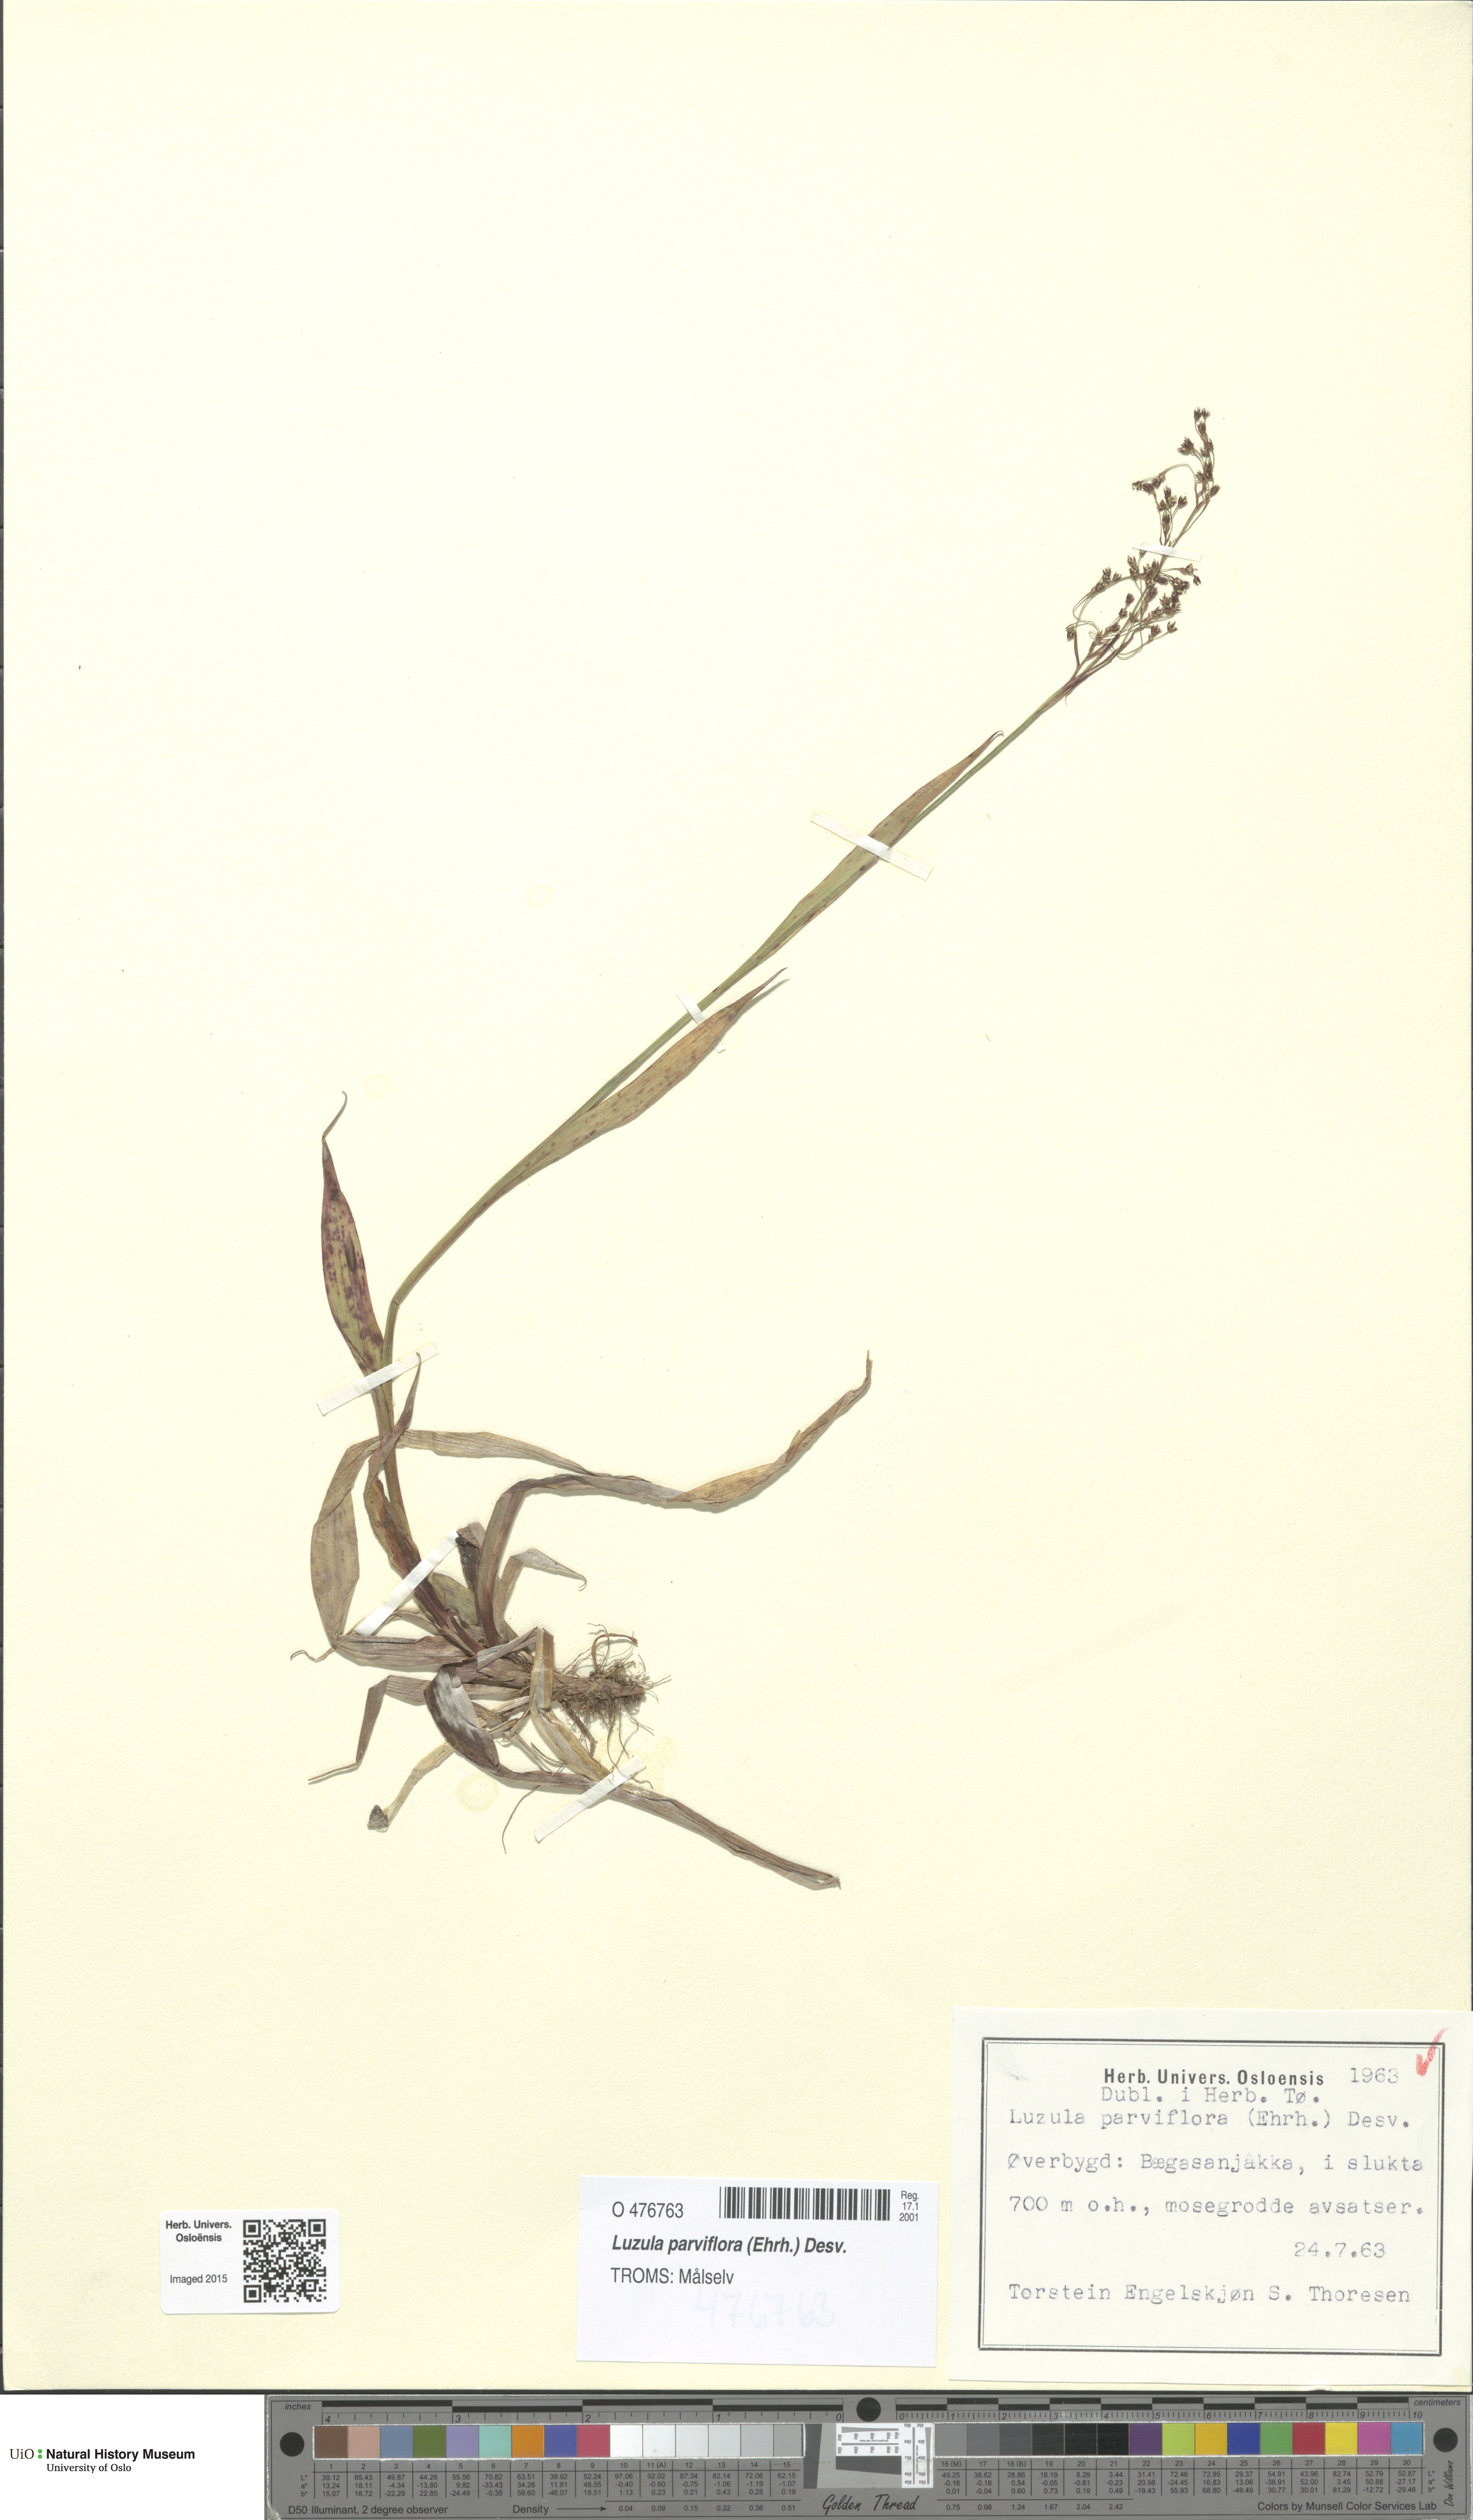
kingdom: Plantae
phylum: Tracheophyta
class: Liliopsida
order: Poales
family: Juncaceae
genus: Luzula
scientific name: Luzula parviflora
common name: Millet woodrush
